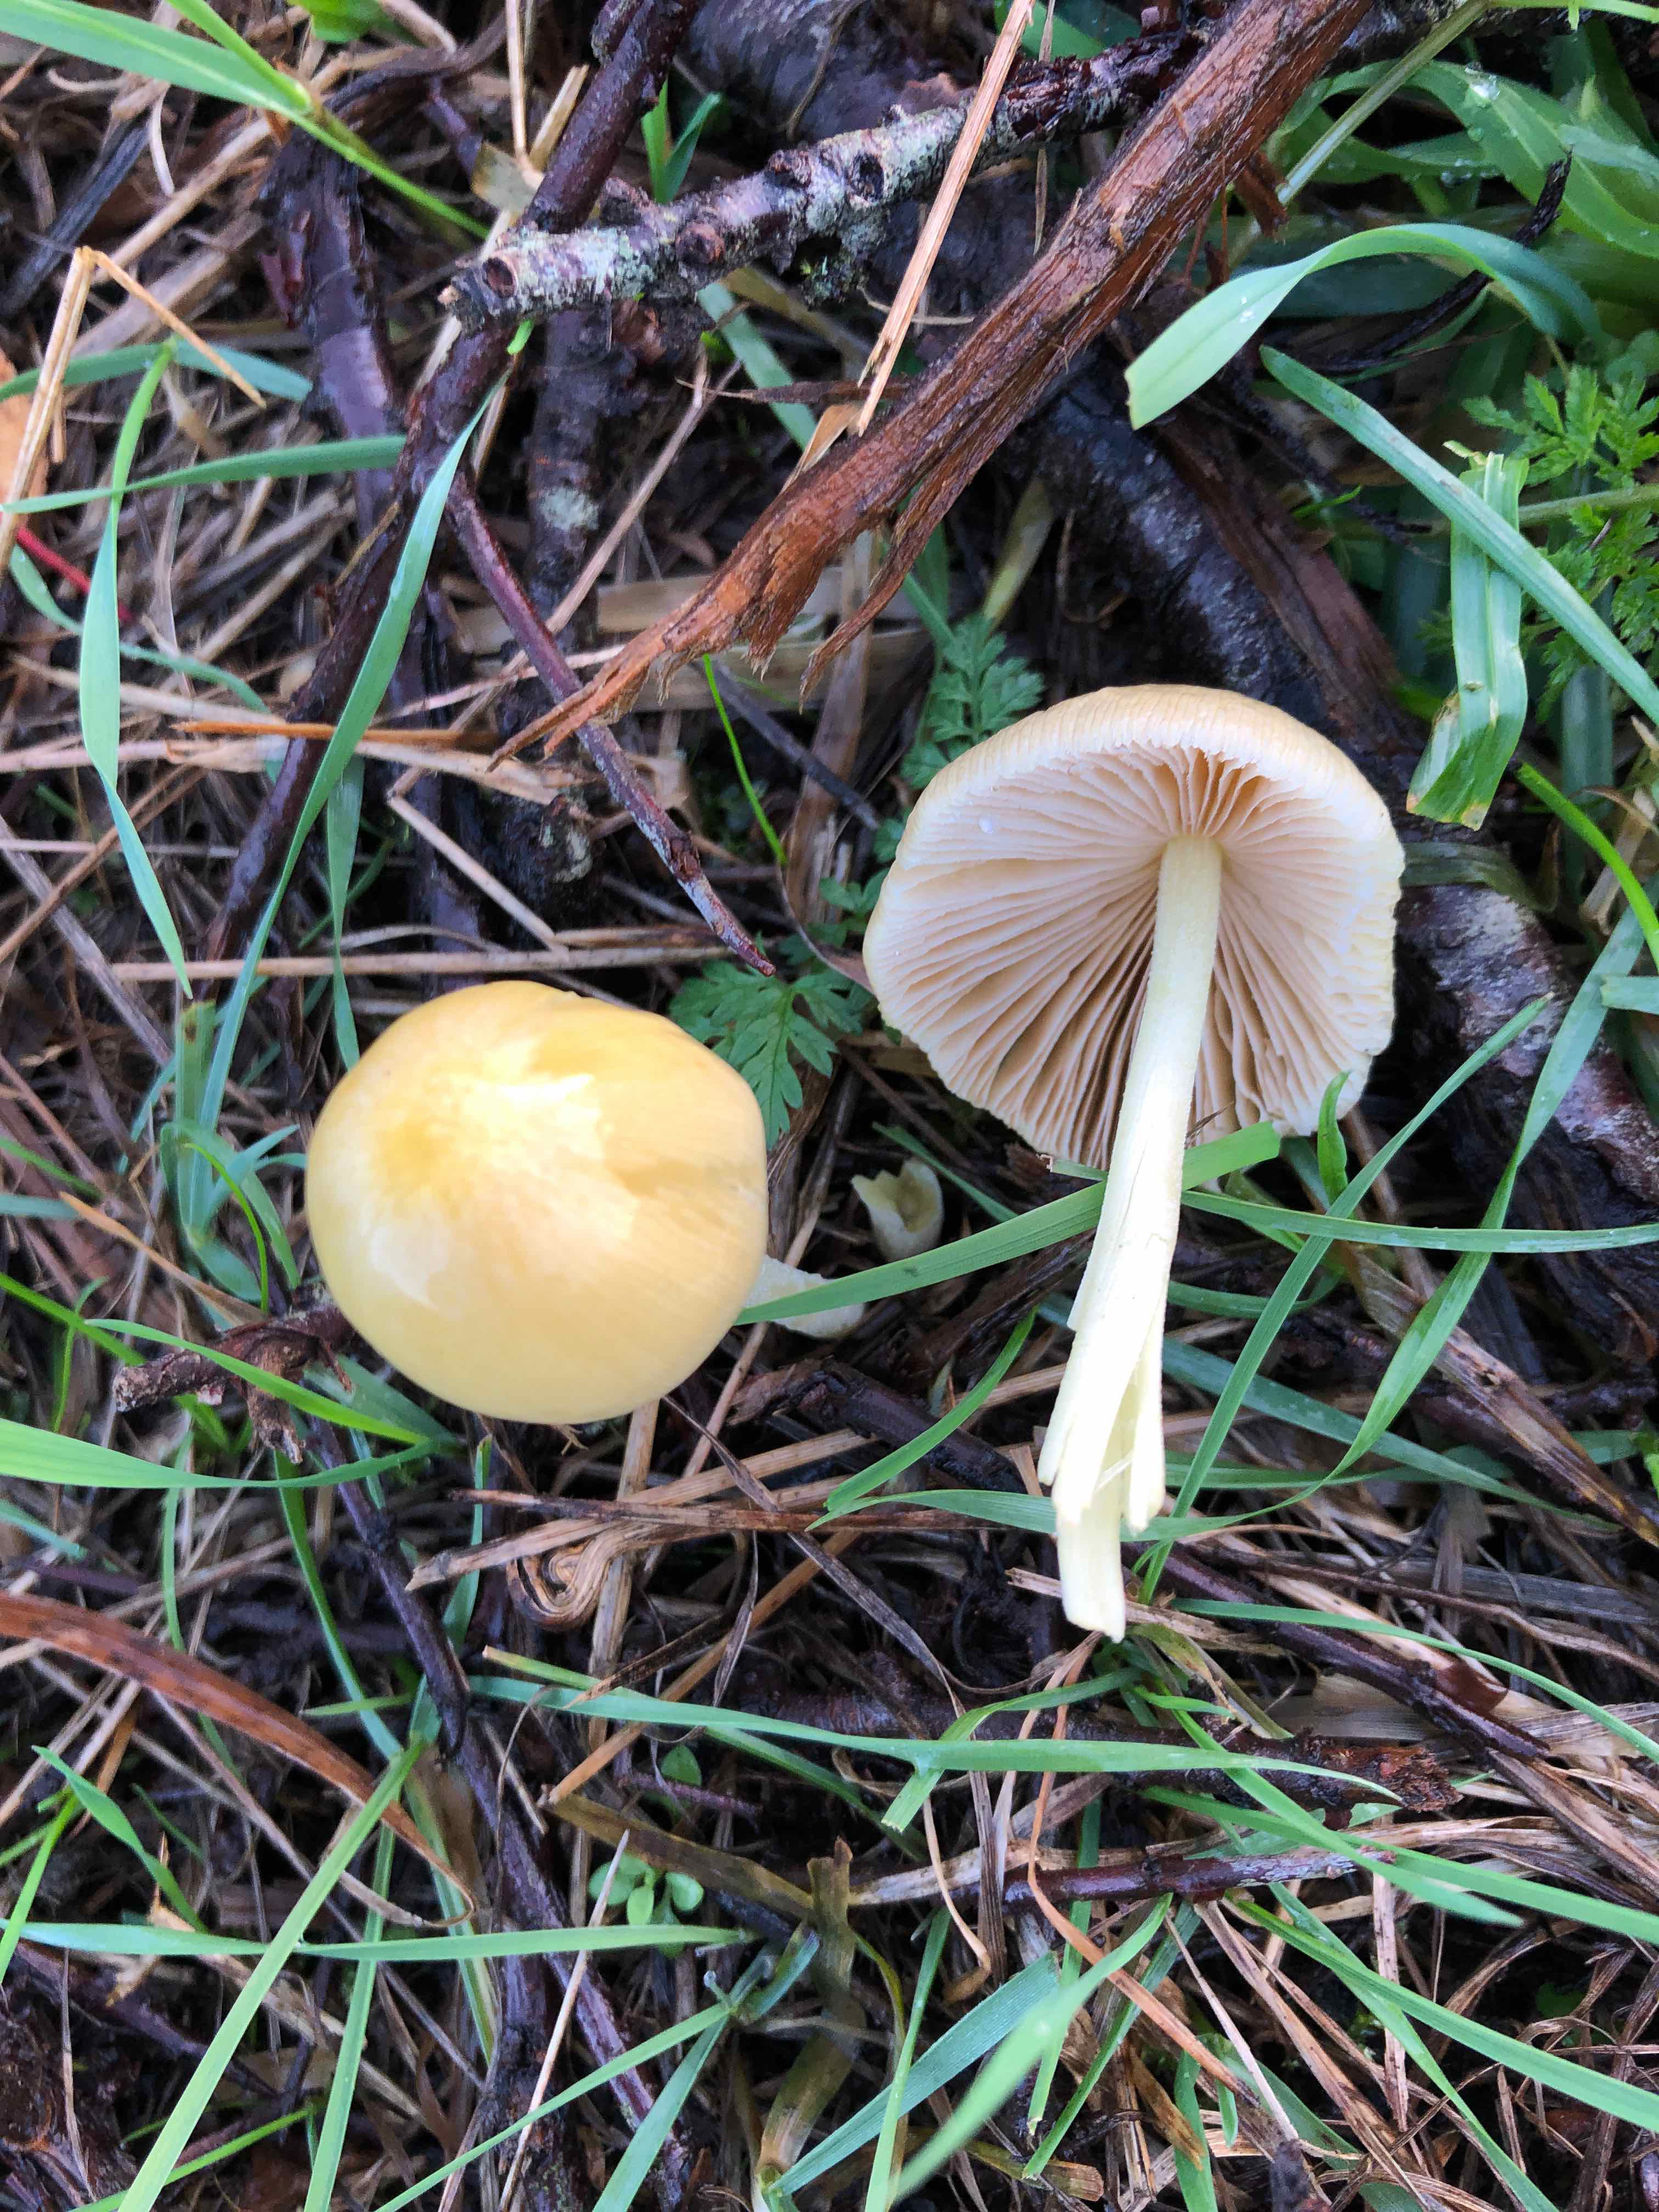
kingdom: Fungi
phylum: Basidiomycota
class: Agaricomycetes
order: Agaricales
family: Bolbitiaceae
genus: Bolbitius
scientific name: Bolbitius titubans
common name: almindelig gulhat
